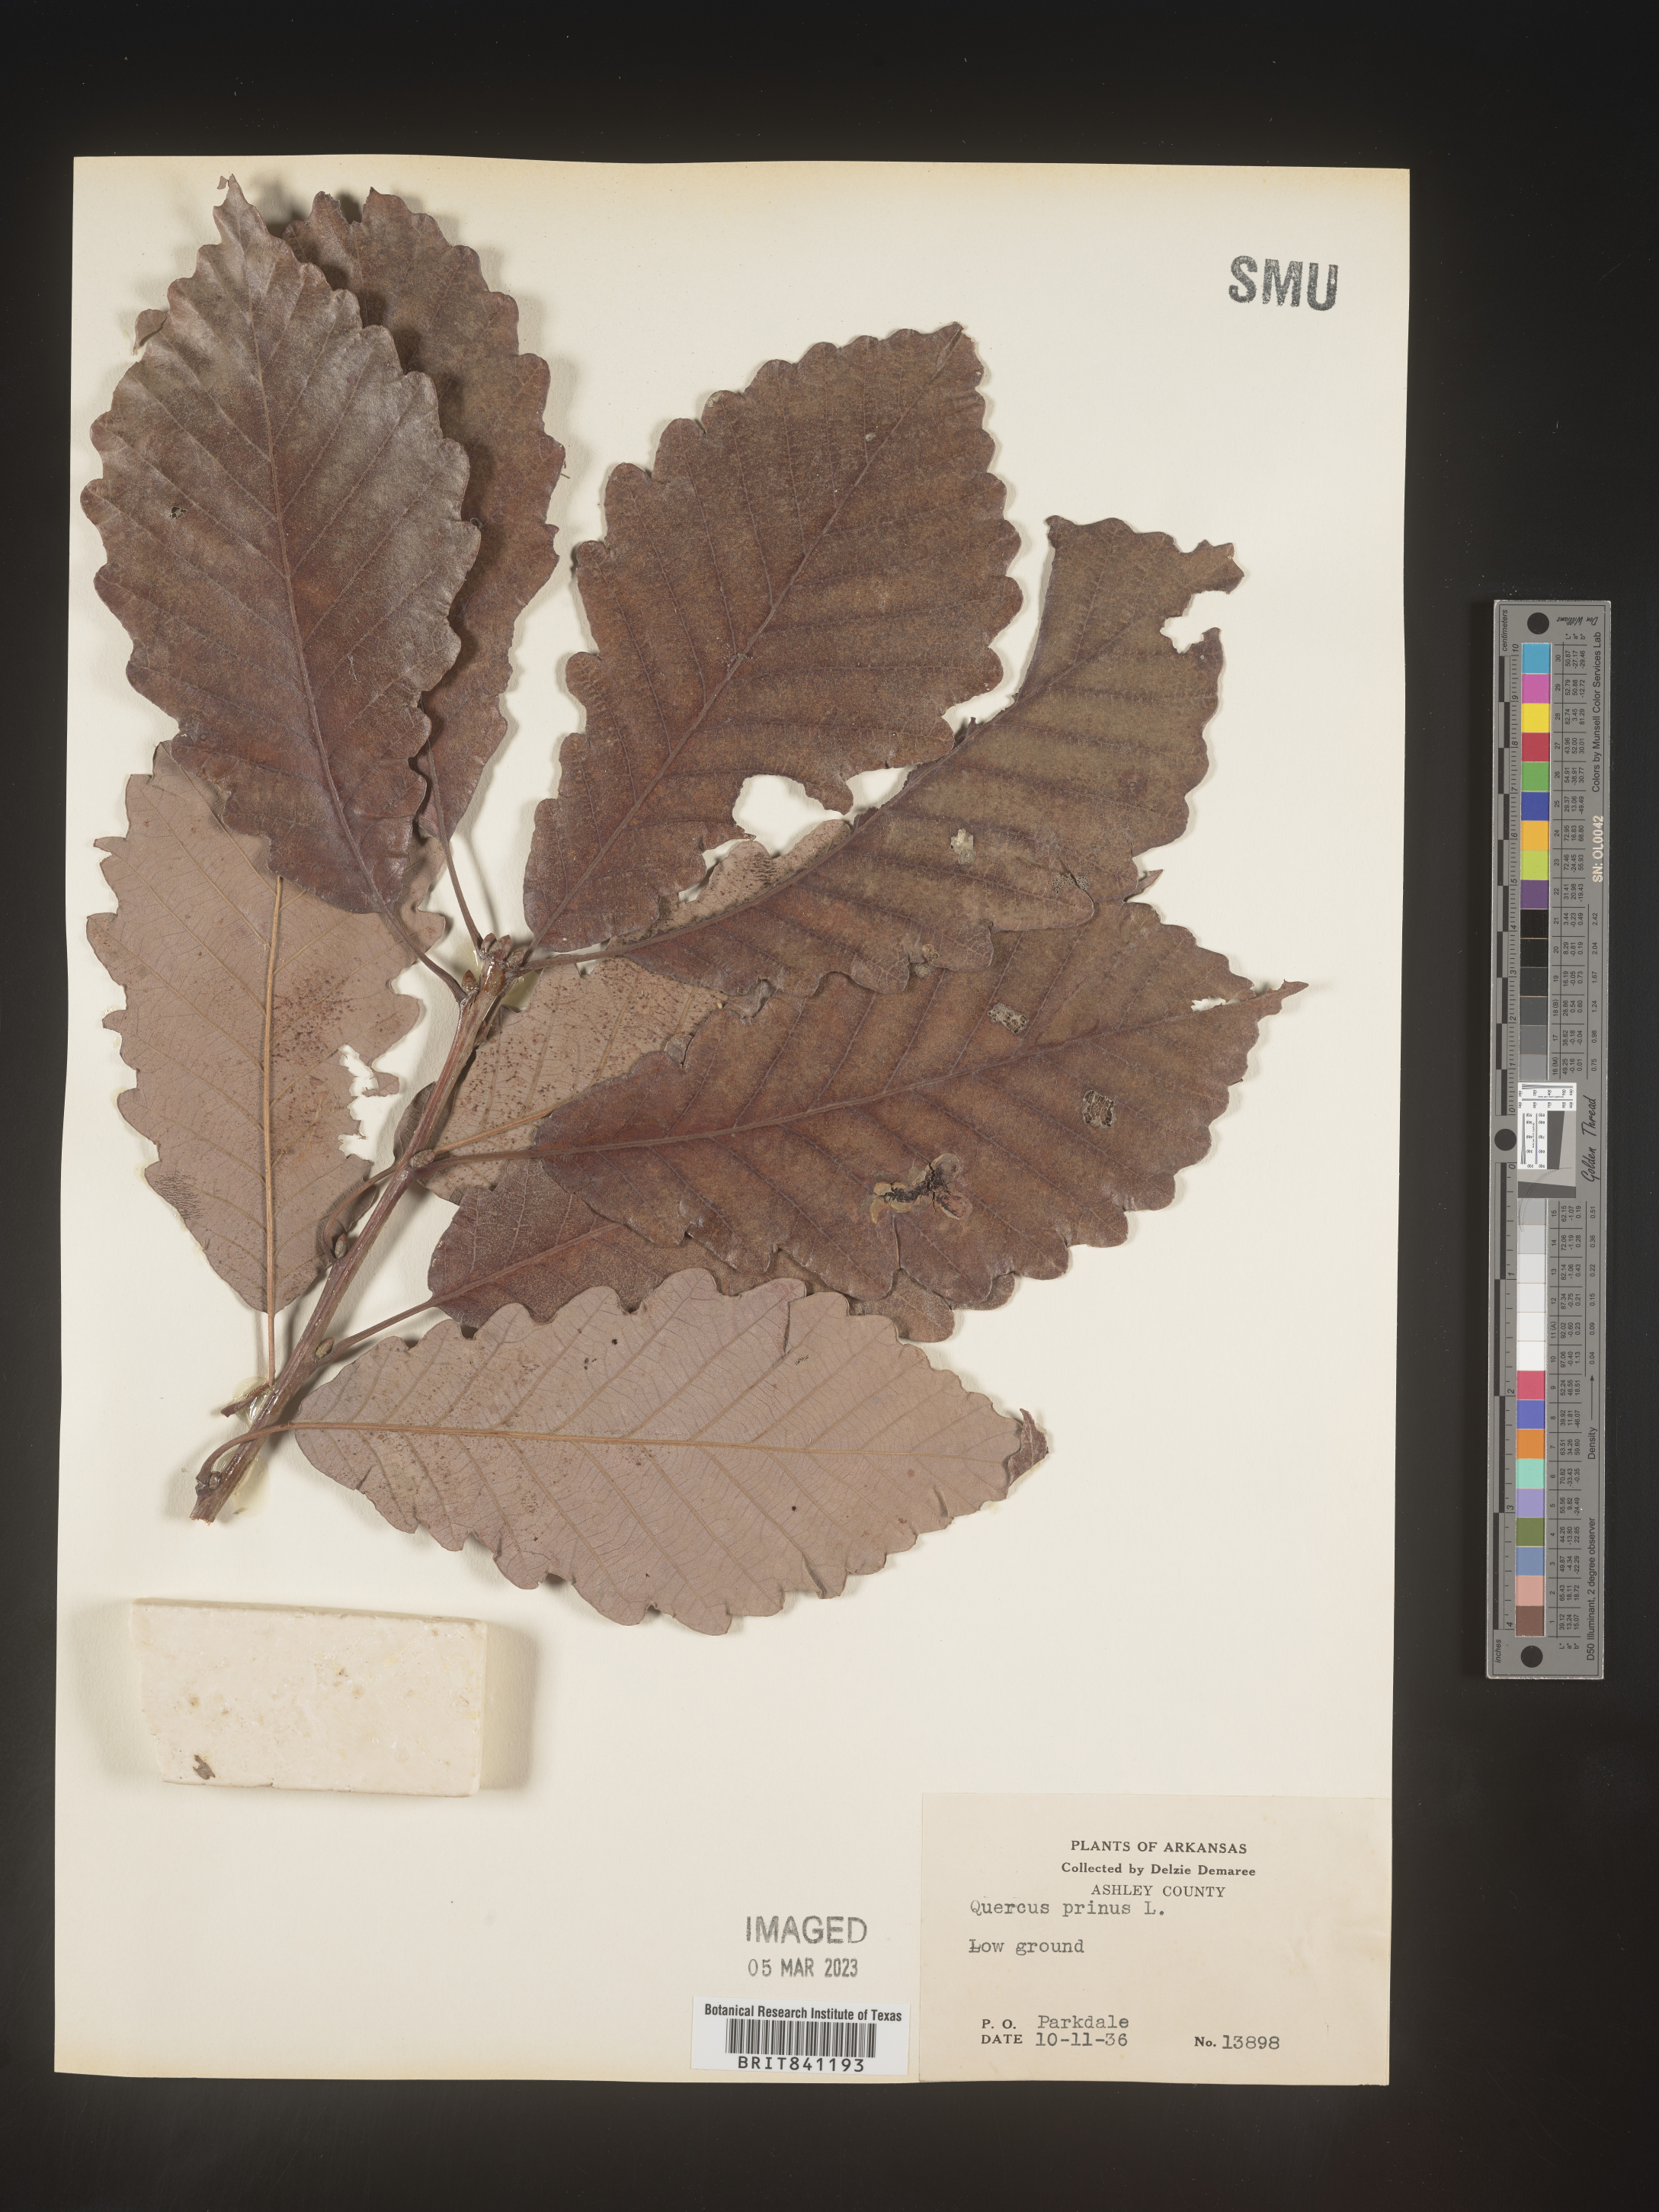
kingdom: Plantae
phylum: Tracheophyta
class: Magnoliopsida
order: Fagales
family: Fagaceae
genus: Quercus
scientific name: Quercus michauxii
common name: Swamp chestnut oak
